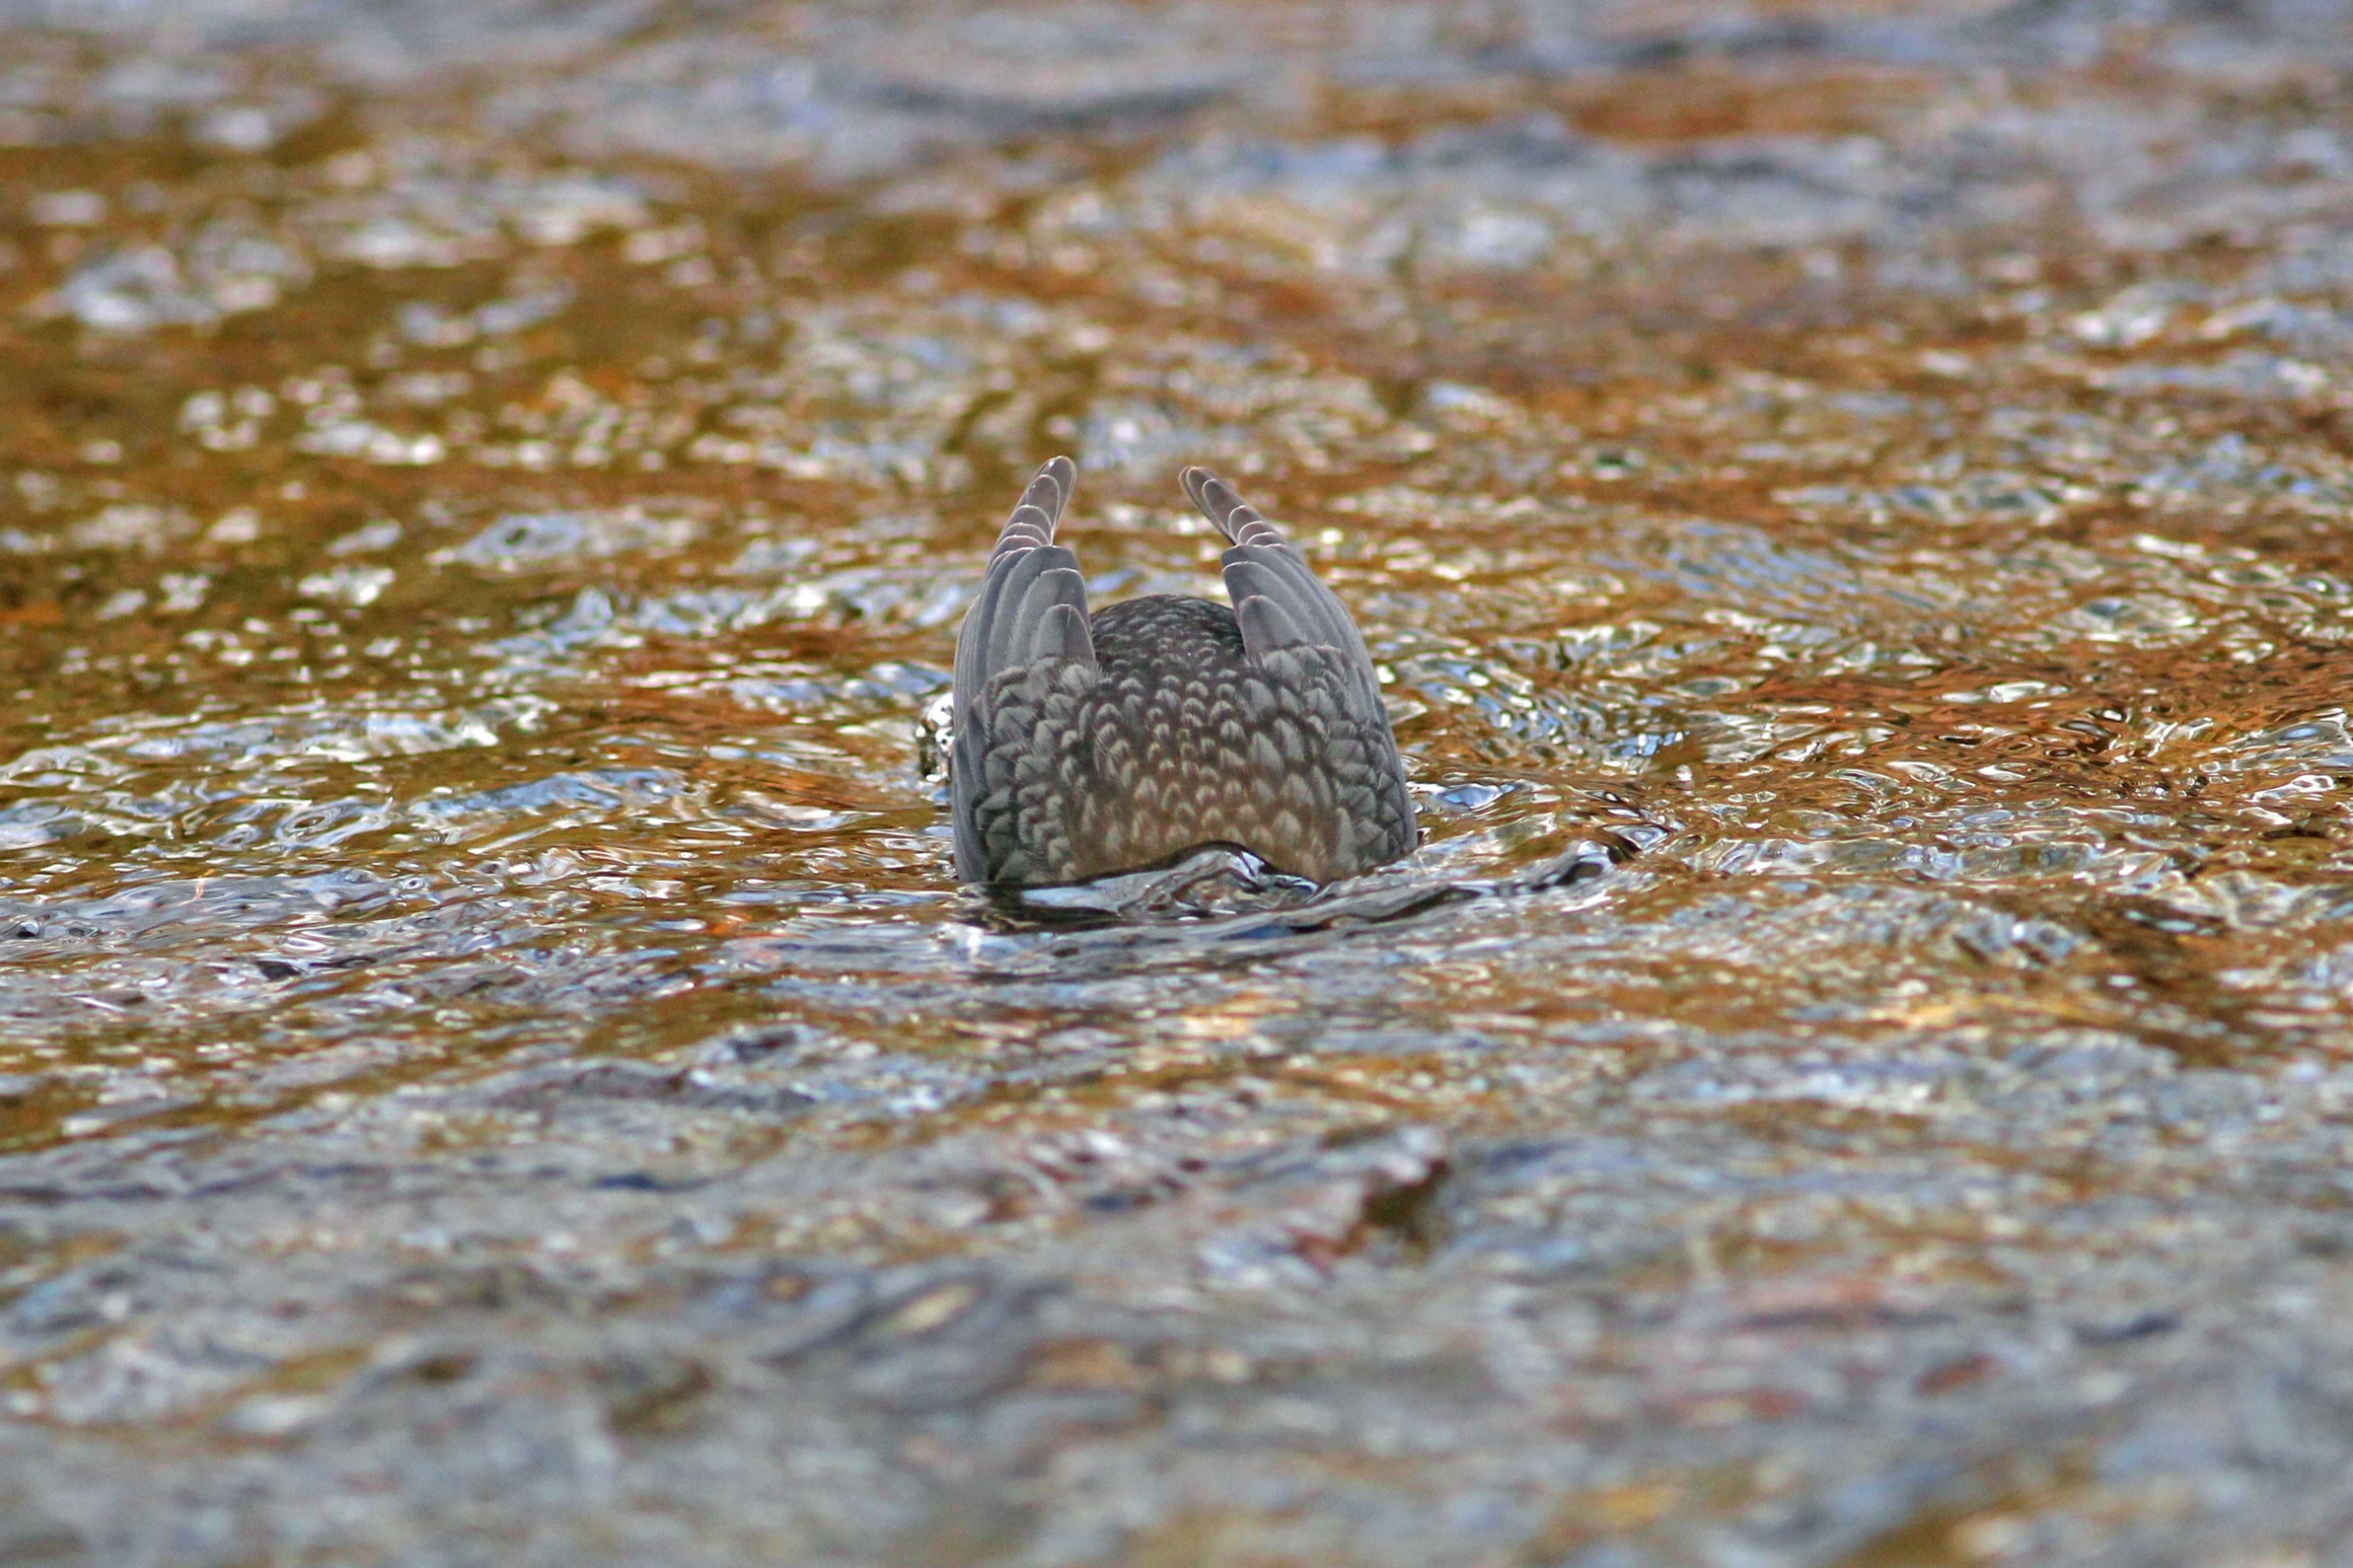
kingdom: Animalia
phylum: Chordata
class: Aves
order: Passeriformes
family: Cinclidae
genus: Cinclus
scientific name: Cinclus cinclus
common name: Vandstær
